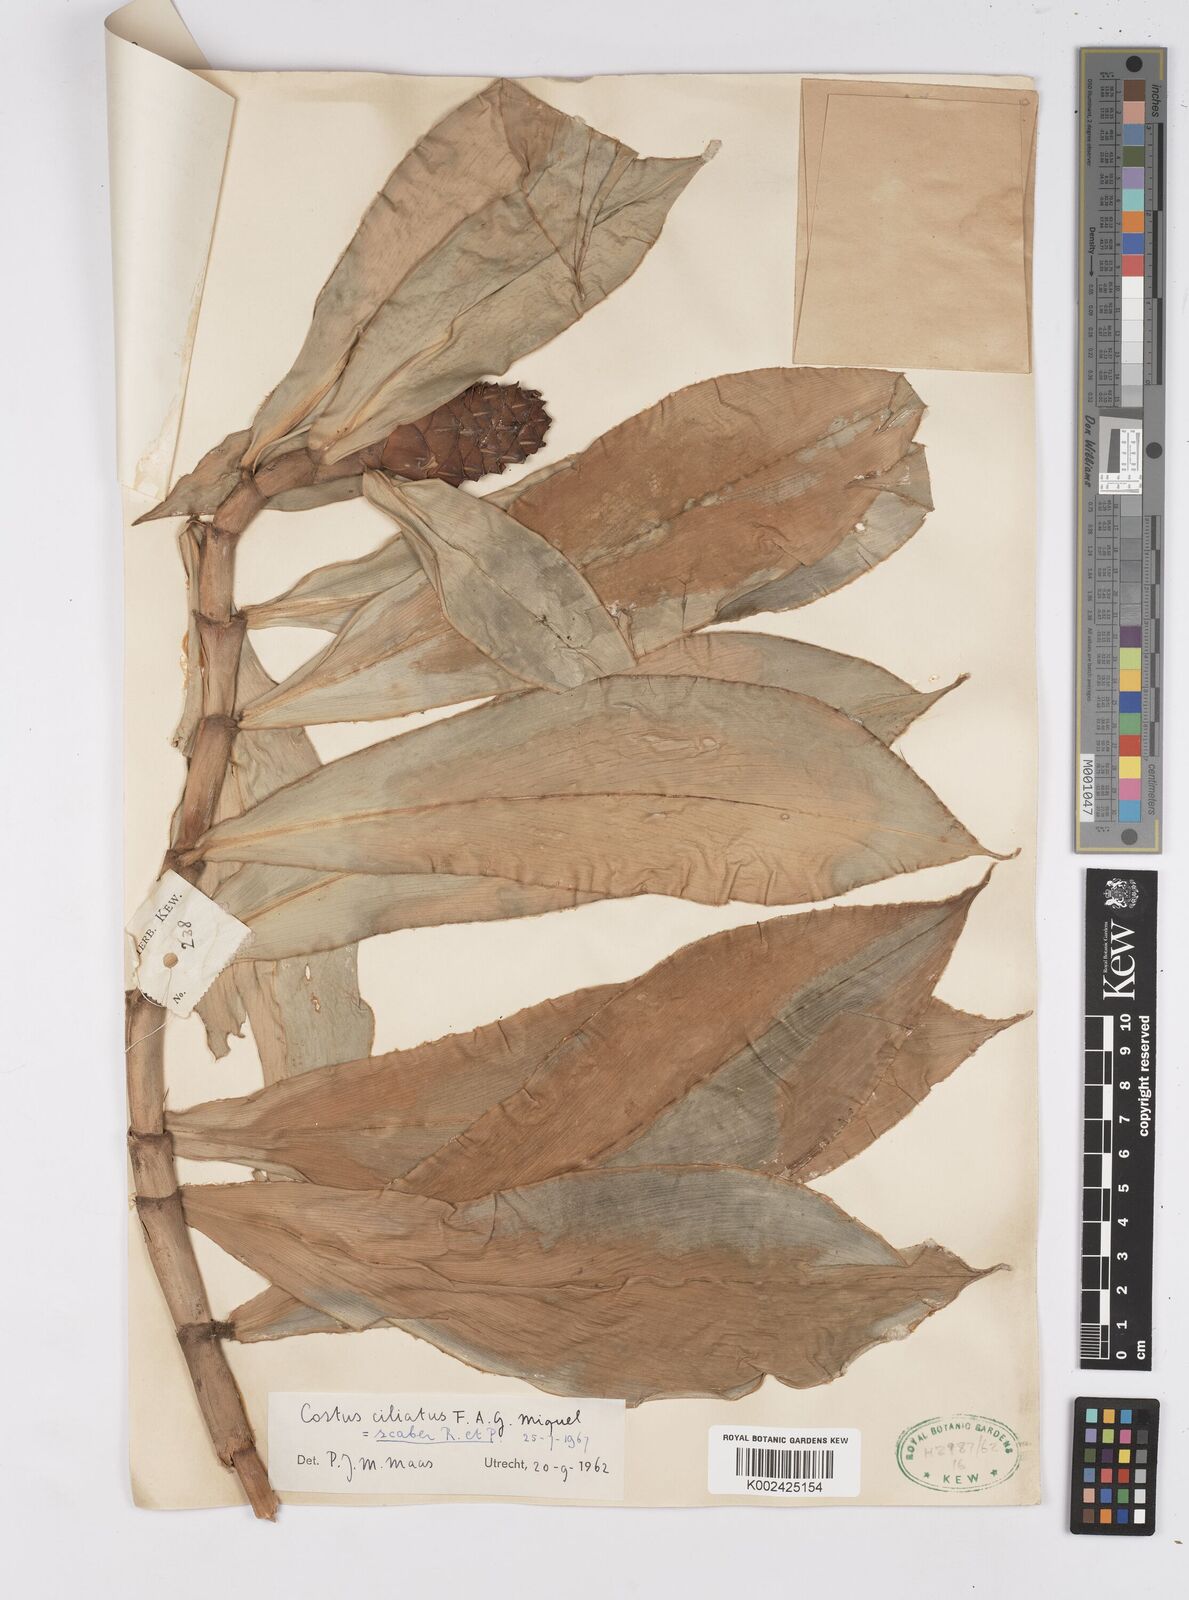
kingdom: Plantae
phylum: Tracheophyta
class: Liliopsida
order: Zingiberales
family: Costaceae
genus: Costus
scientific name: Costus scaber
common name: Spiral head ginger
